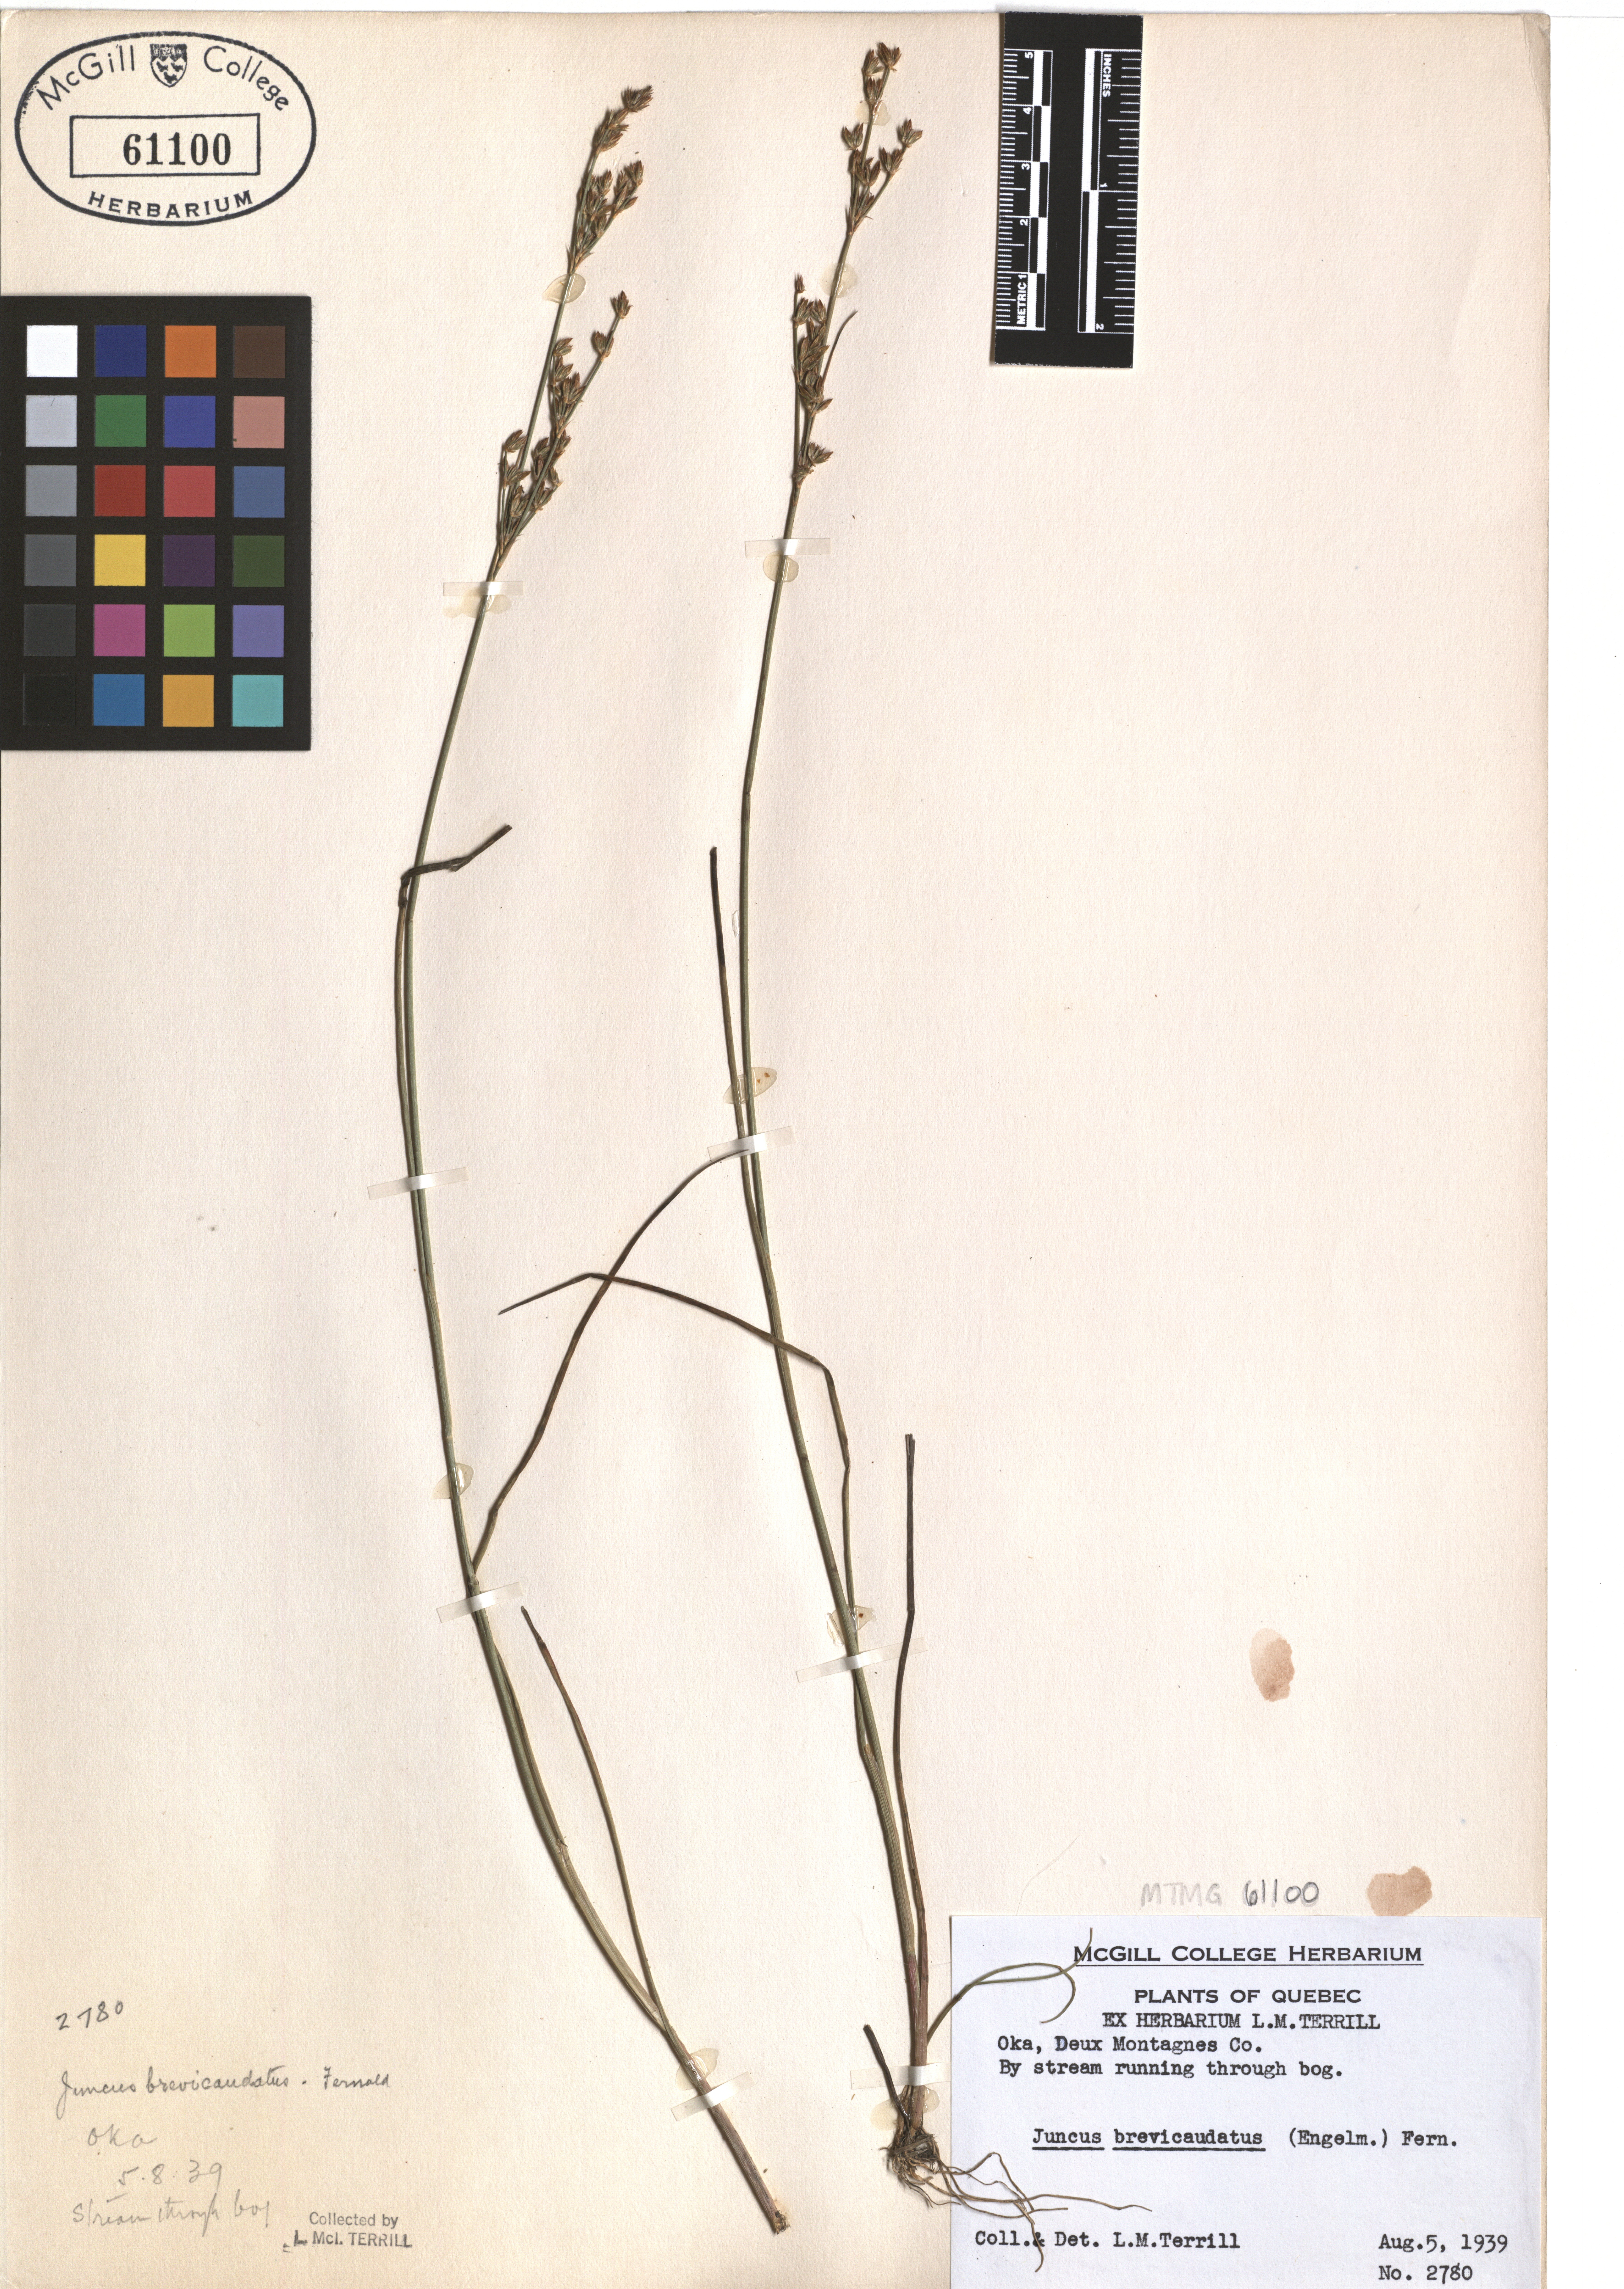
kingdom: Plantae
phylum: Tracheophyta
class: Liliopsida
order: Poales
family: Juncaceae
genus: Juncus
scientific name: Juncus brevicaudatus
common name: Narrow-panicle rush
